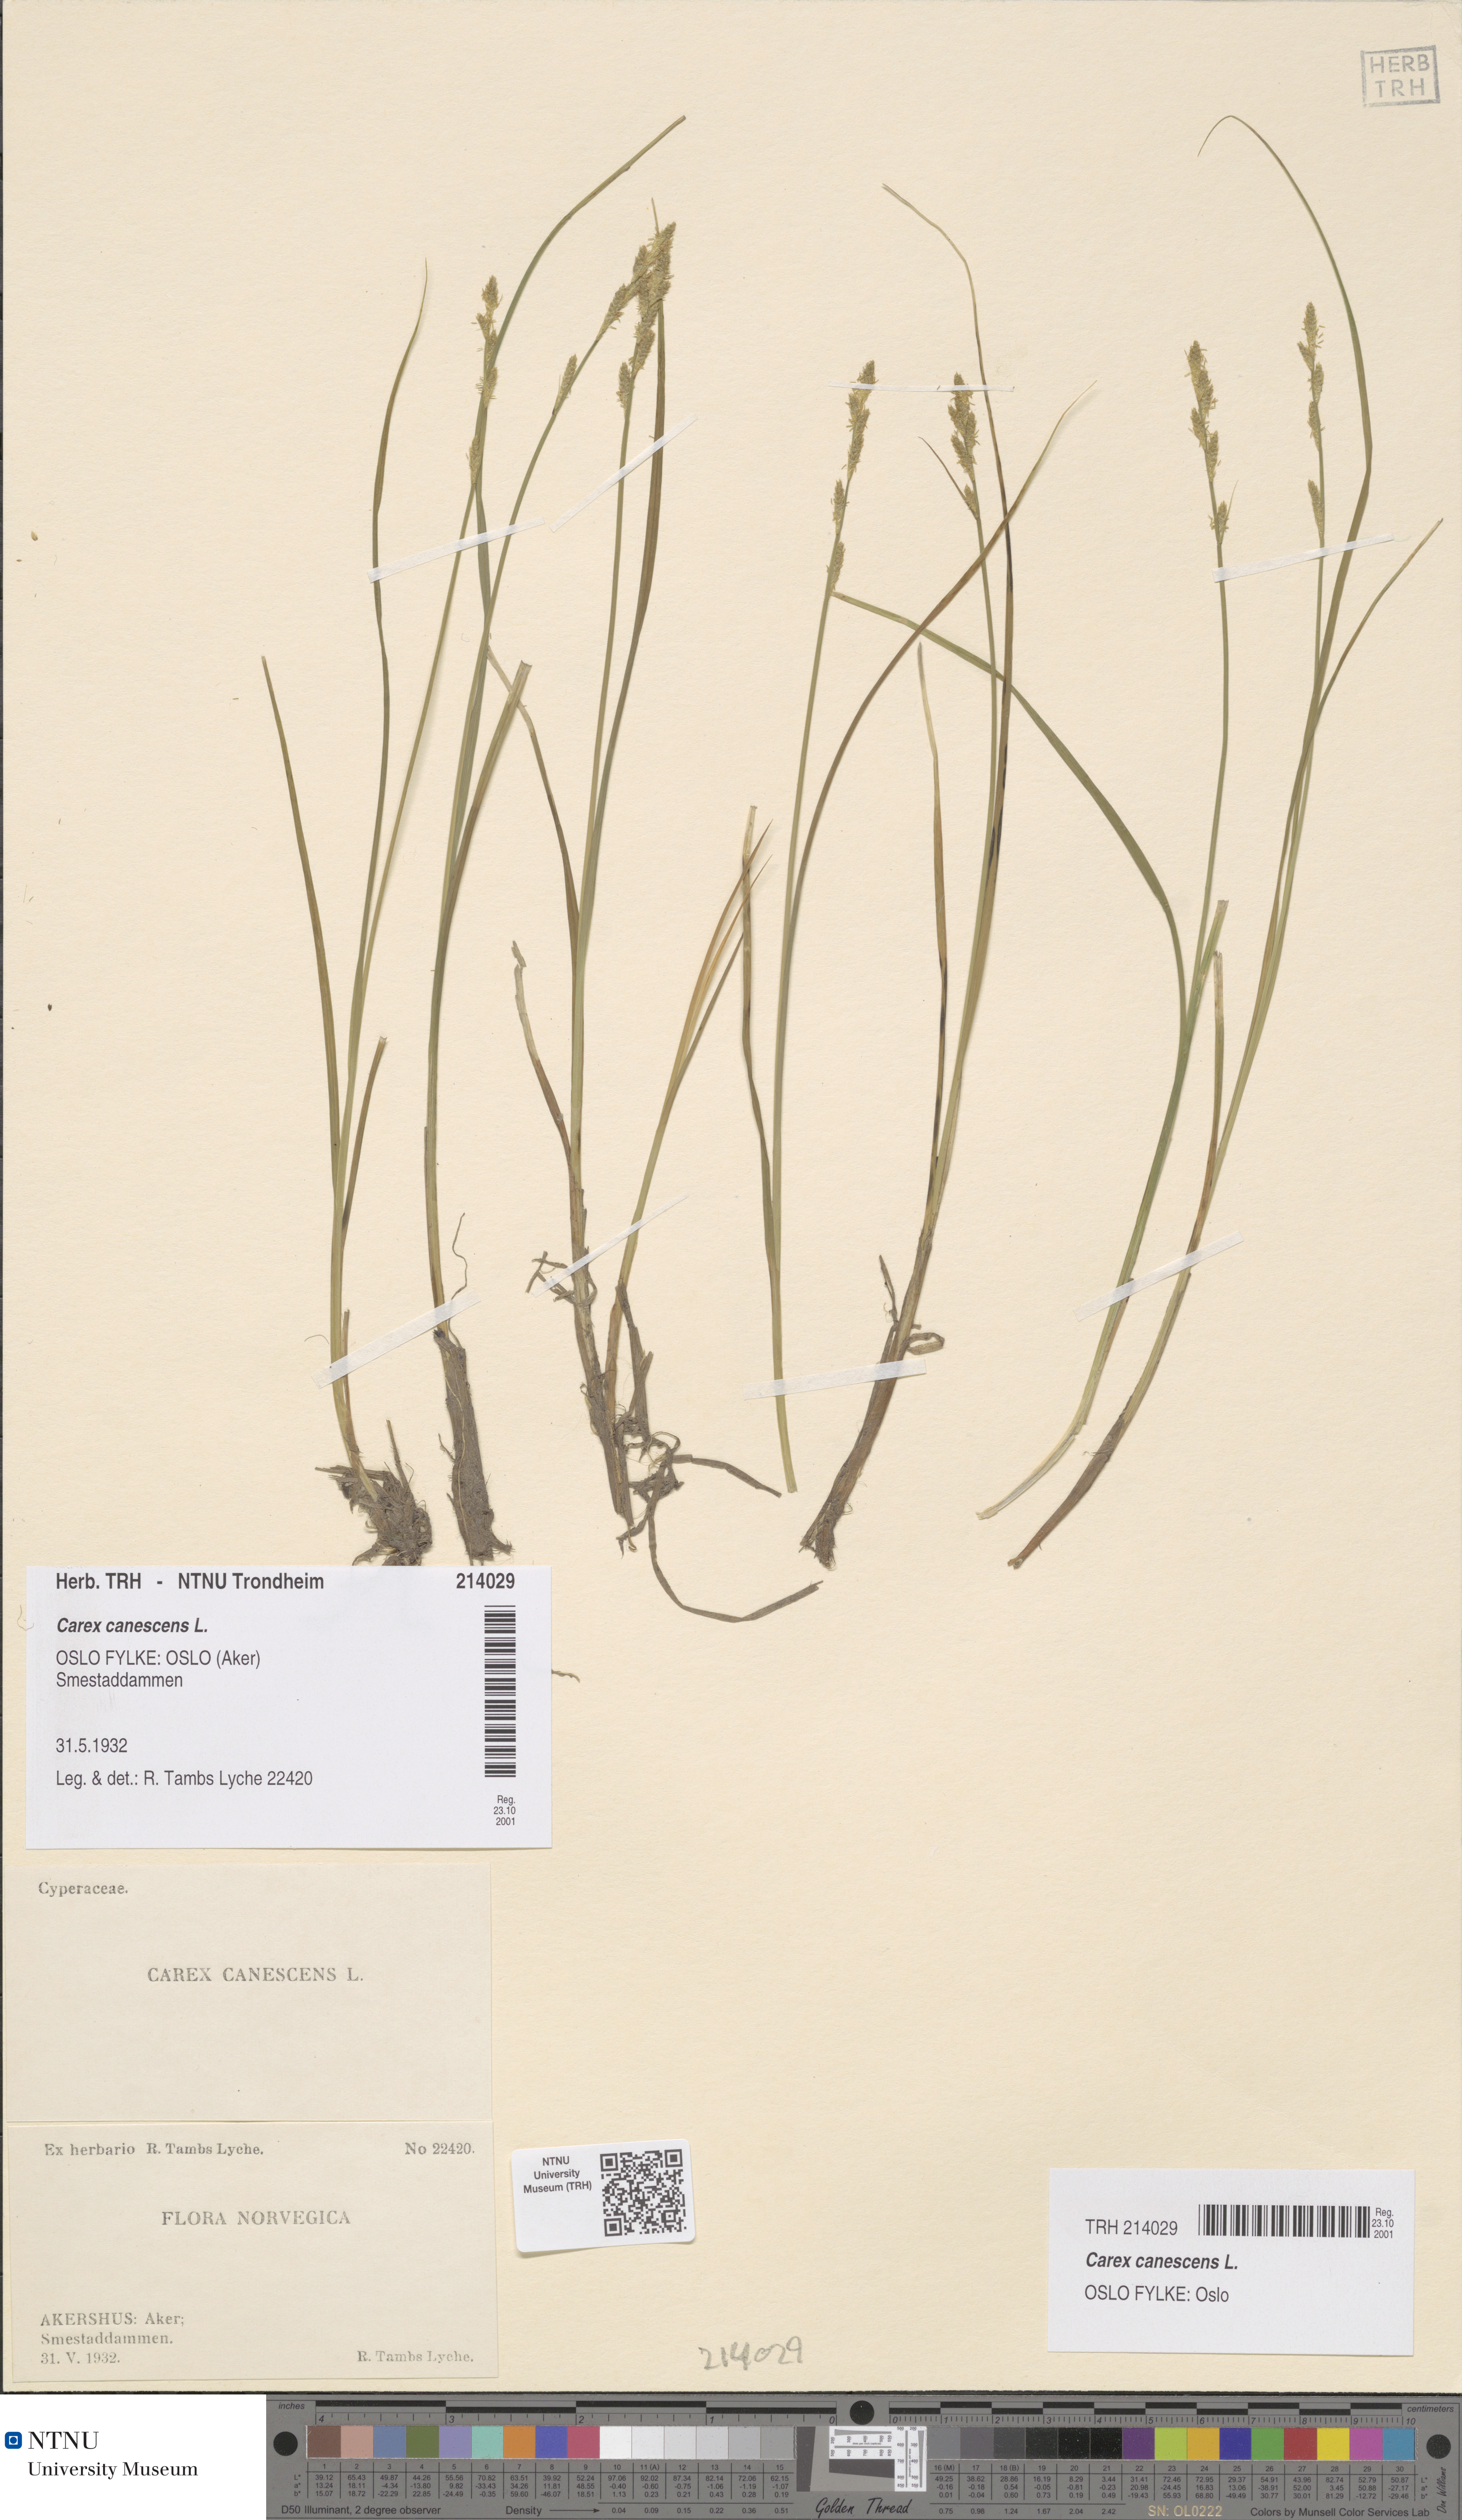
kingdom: Plantae
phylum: Tracheophyta
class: Liliopsida
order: Poales
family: Cyperaceae
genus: Carex
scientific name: Carex canescens
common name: White sedge
